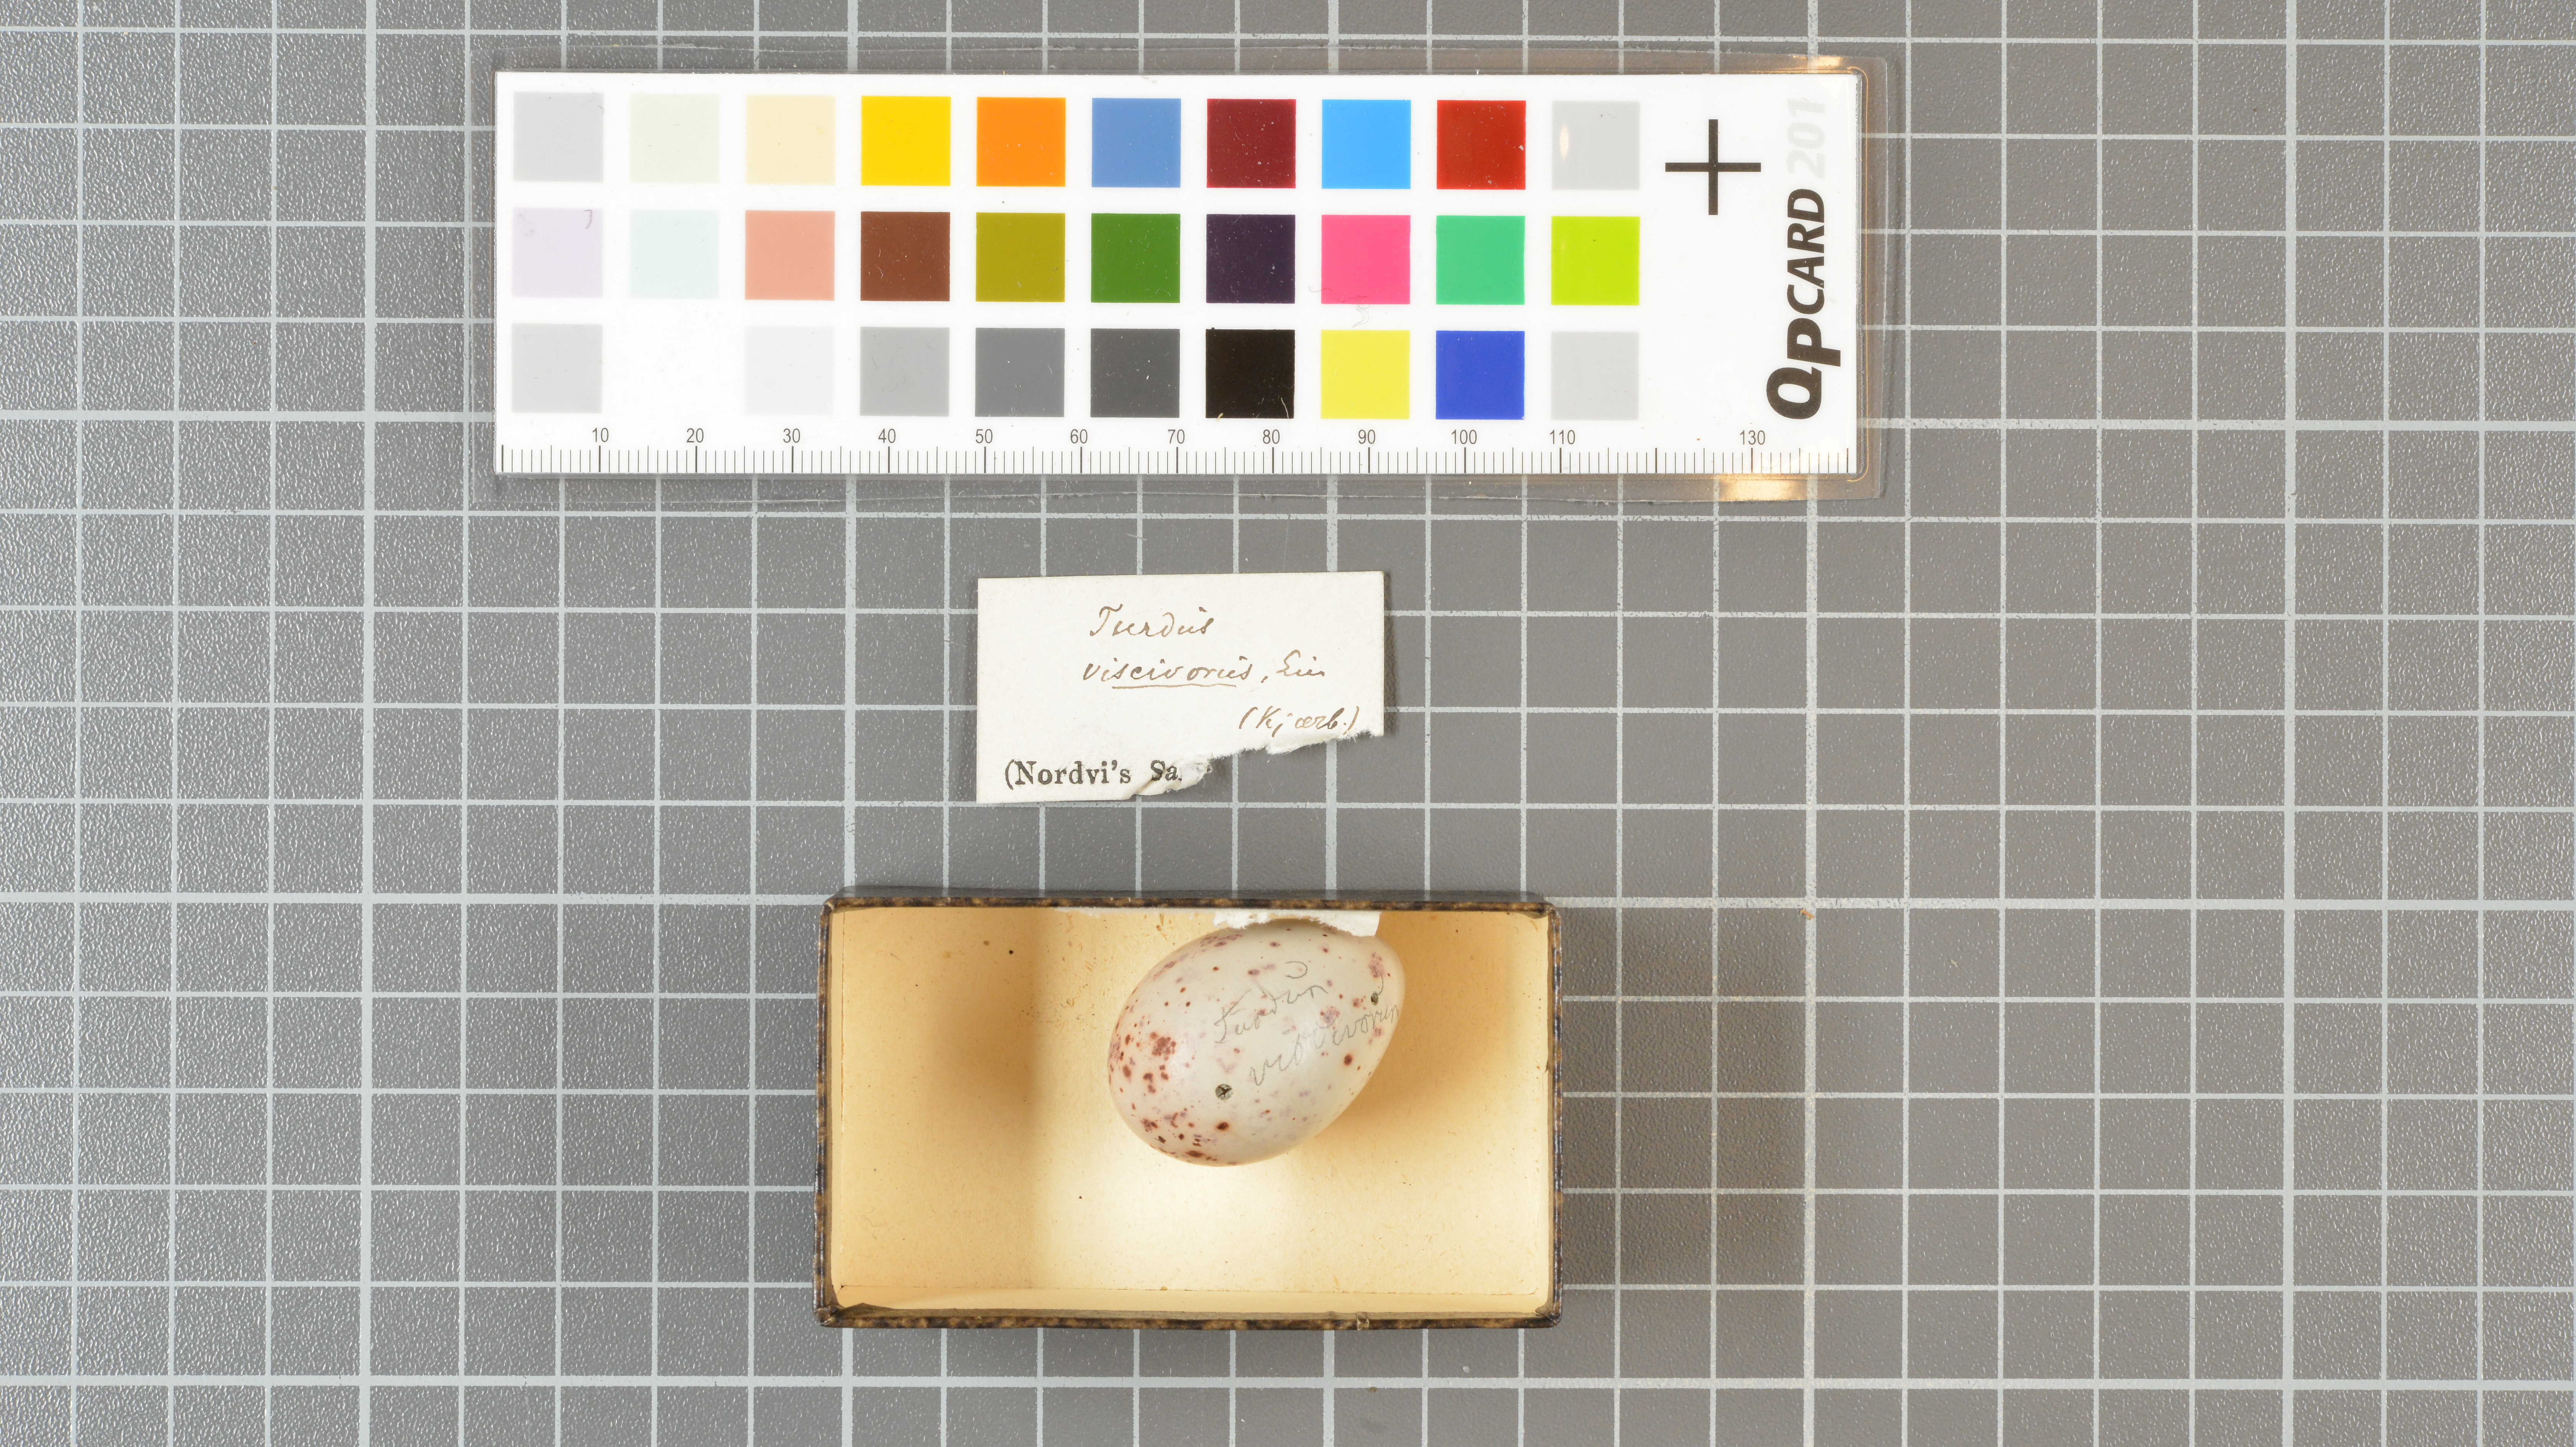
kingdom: Animalia
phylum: Chordata
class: Aves
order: Passeriformes
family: Turdidae
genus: Turdus
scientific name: Turdus viscivorus
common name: Mistle thrush
